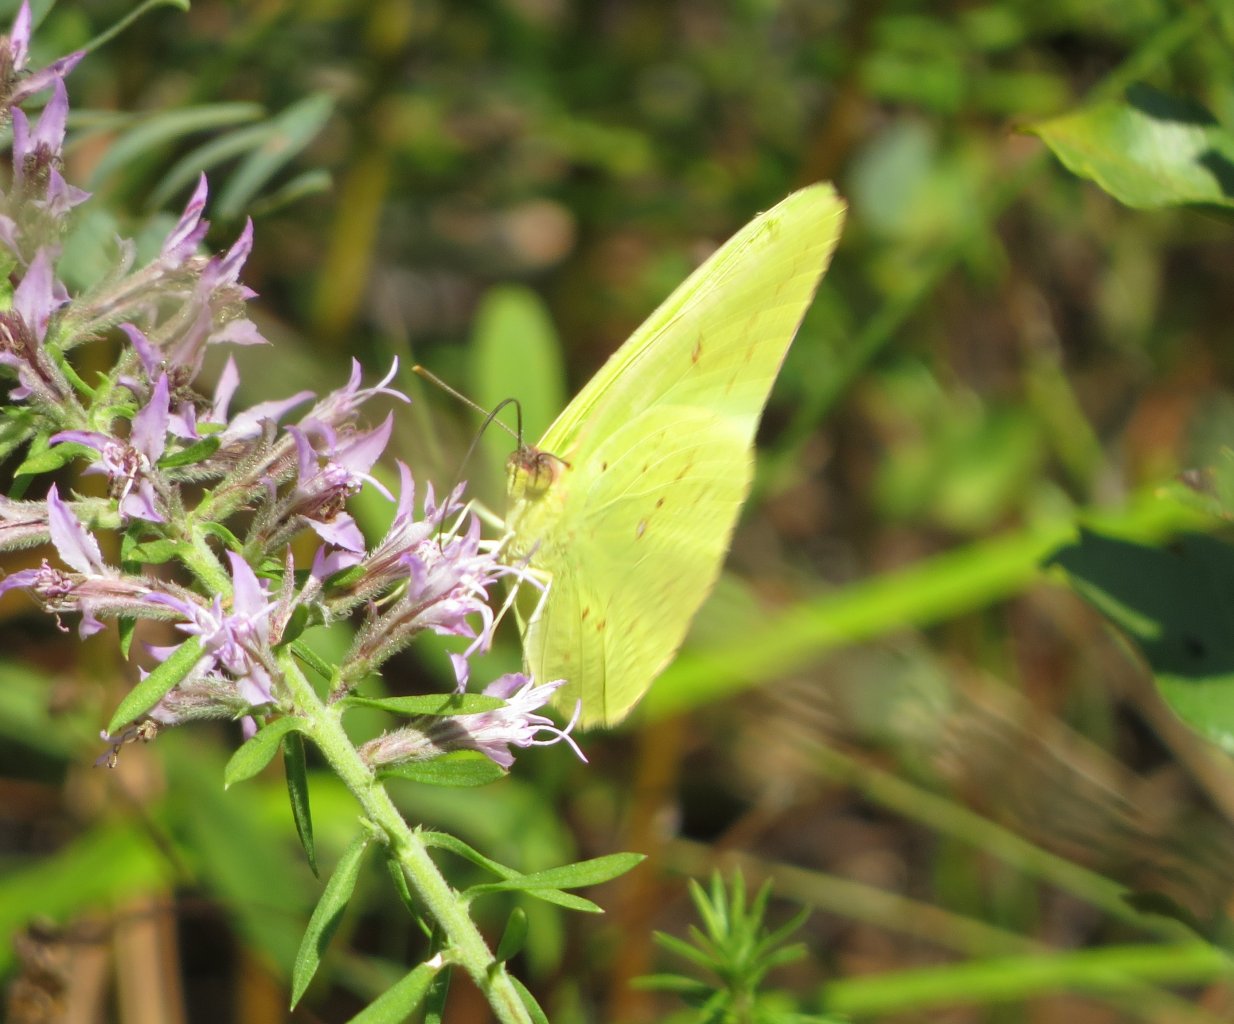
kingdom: Animalia
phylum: Arthropoda
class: Insecta
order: Lepidoptera
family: Pieridae
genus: Phoebis
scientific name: Phoebis sennae
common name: Cloudless Sulphur
